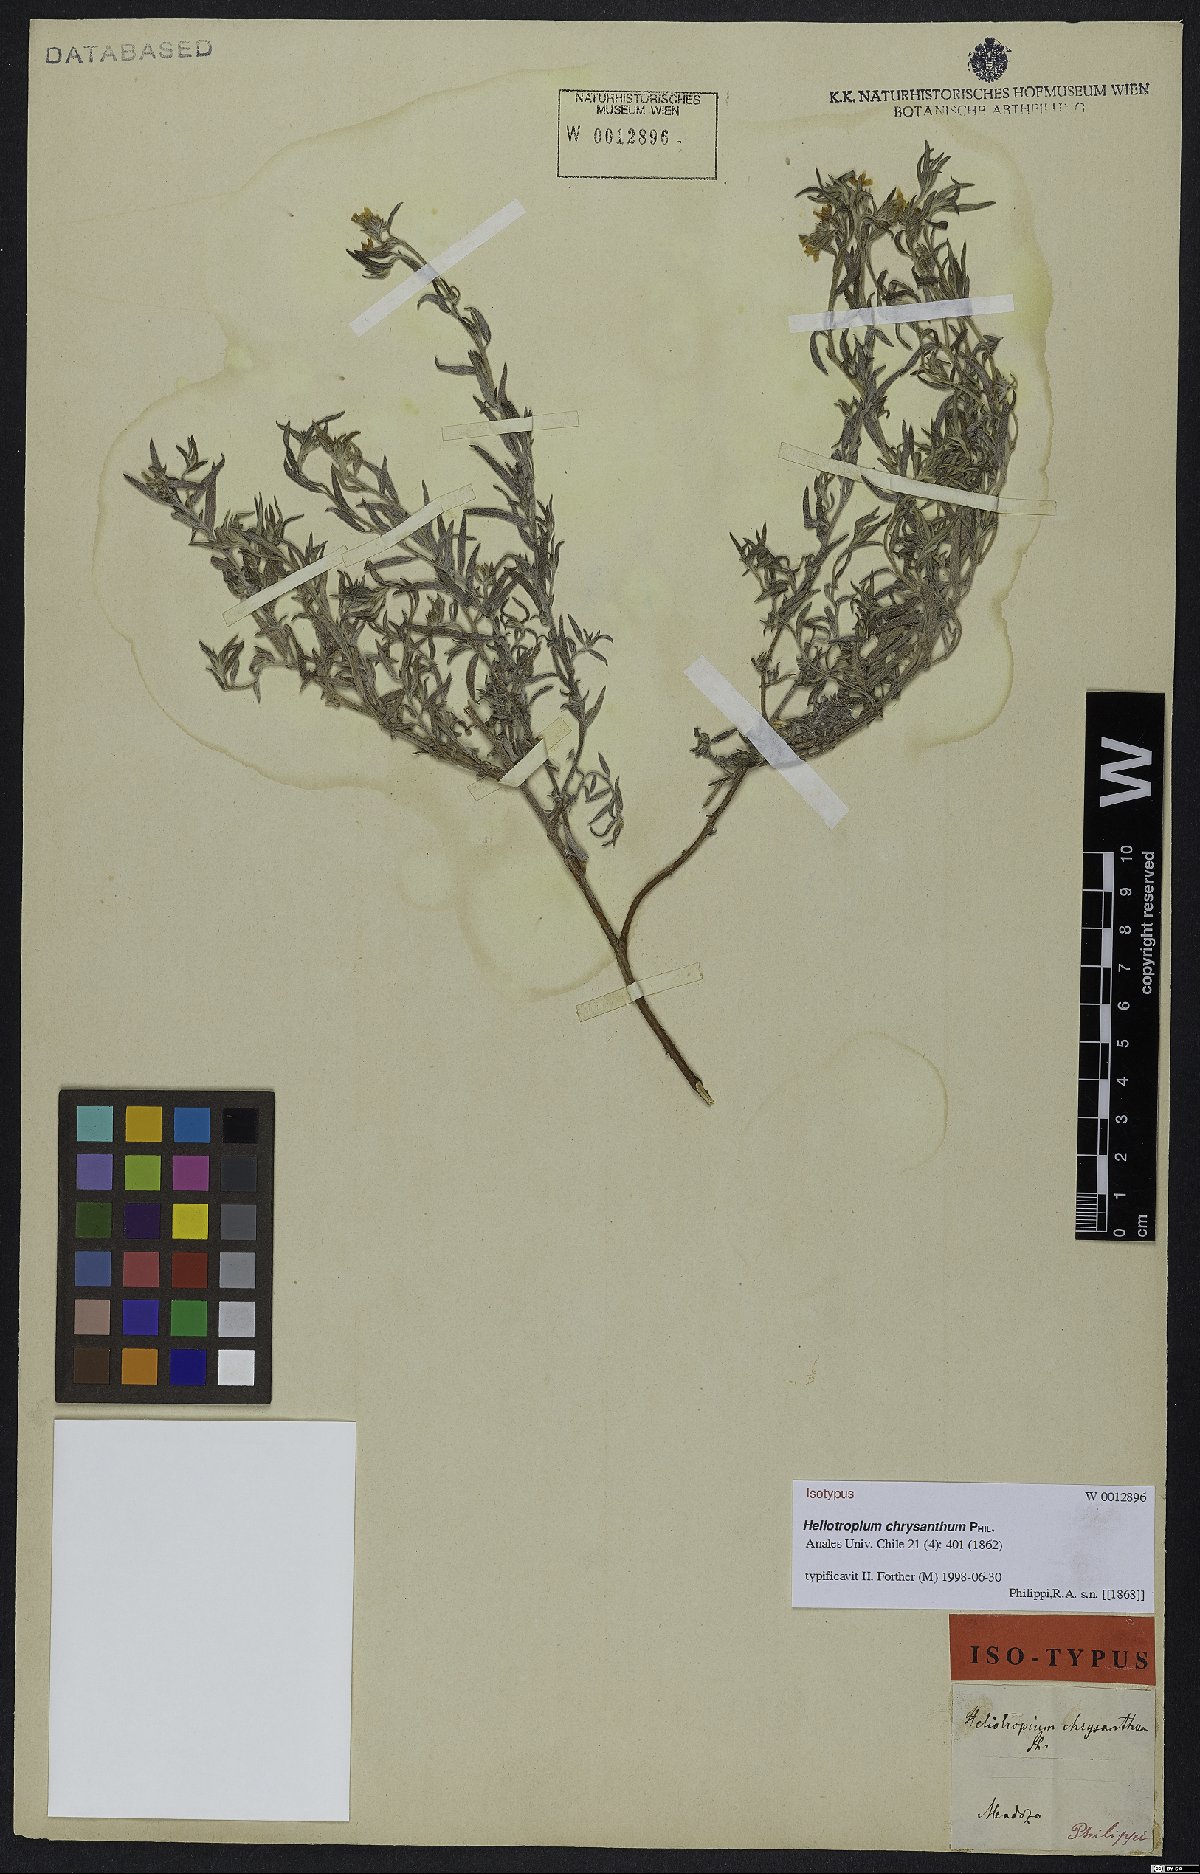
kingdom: Plantae
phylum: Tracheophyta
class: Magnoliopsida
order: Boraginales
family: Heliotropiaceae
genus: Euploca
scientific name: Euploca chrysantha
